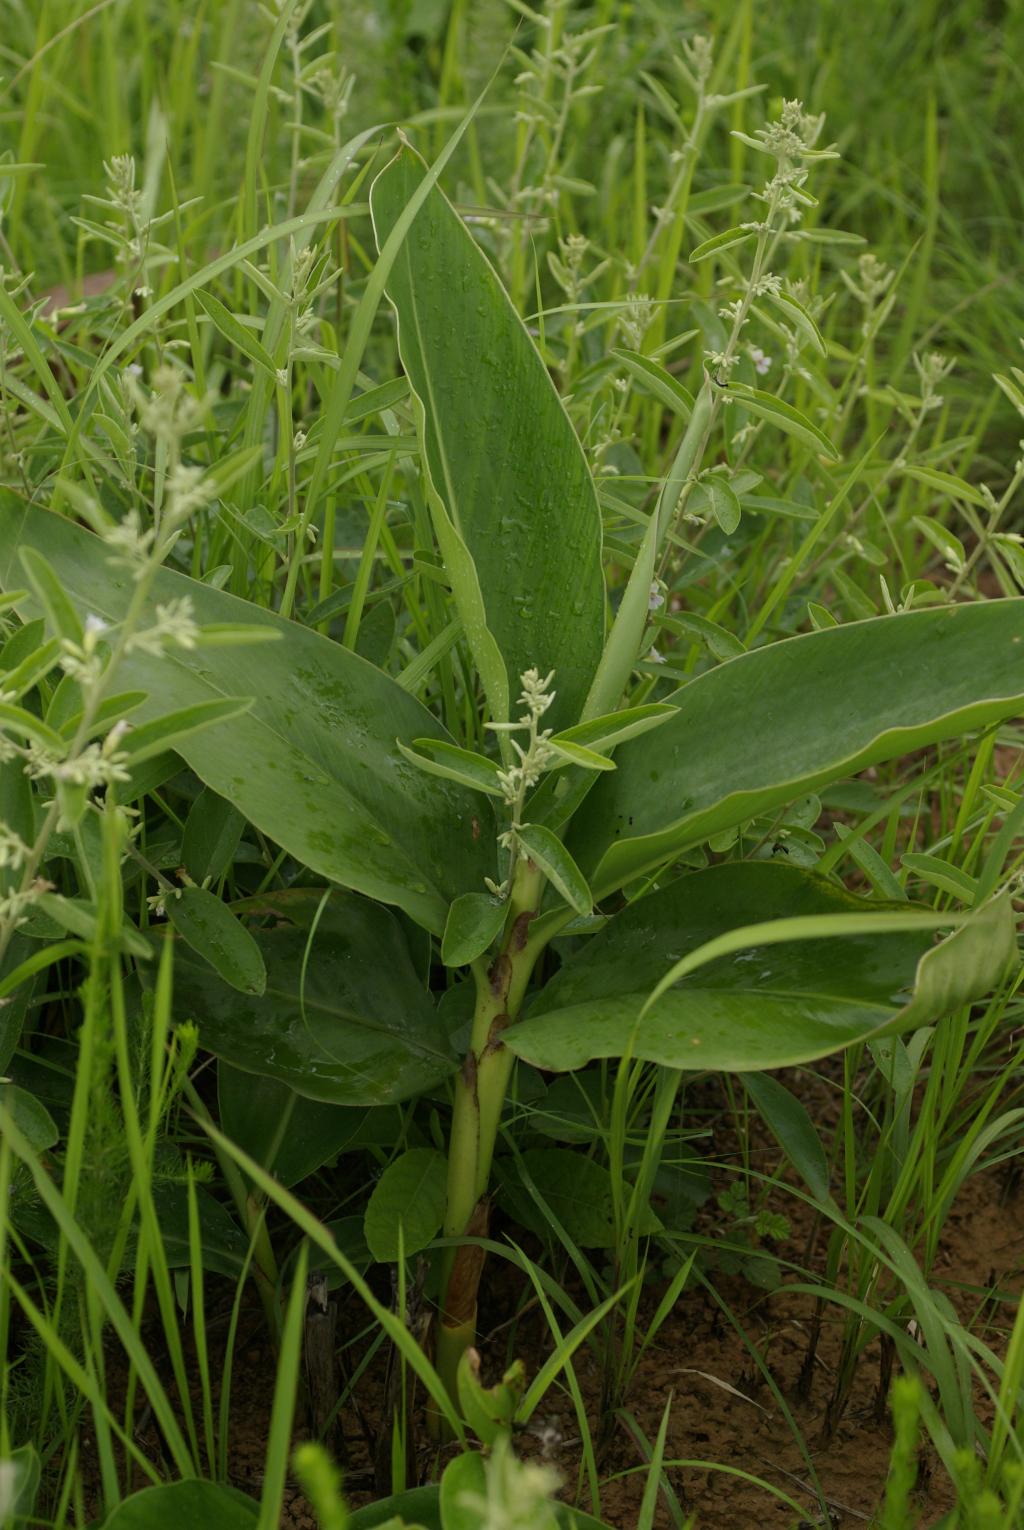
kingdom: Plantae
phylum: Tracheophyta
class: Liliopsida
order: Zingiberales
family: Zingiberaceae
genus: Alpinia
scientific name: Alpinia zerumbet
